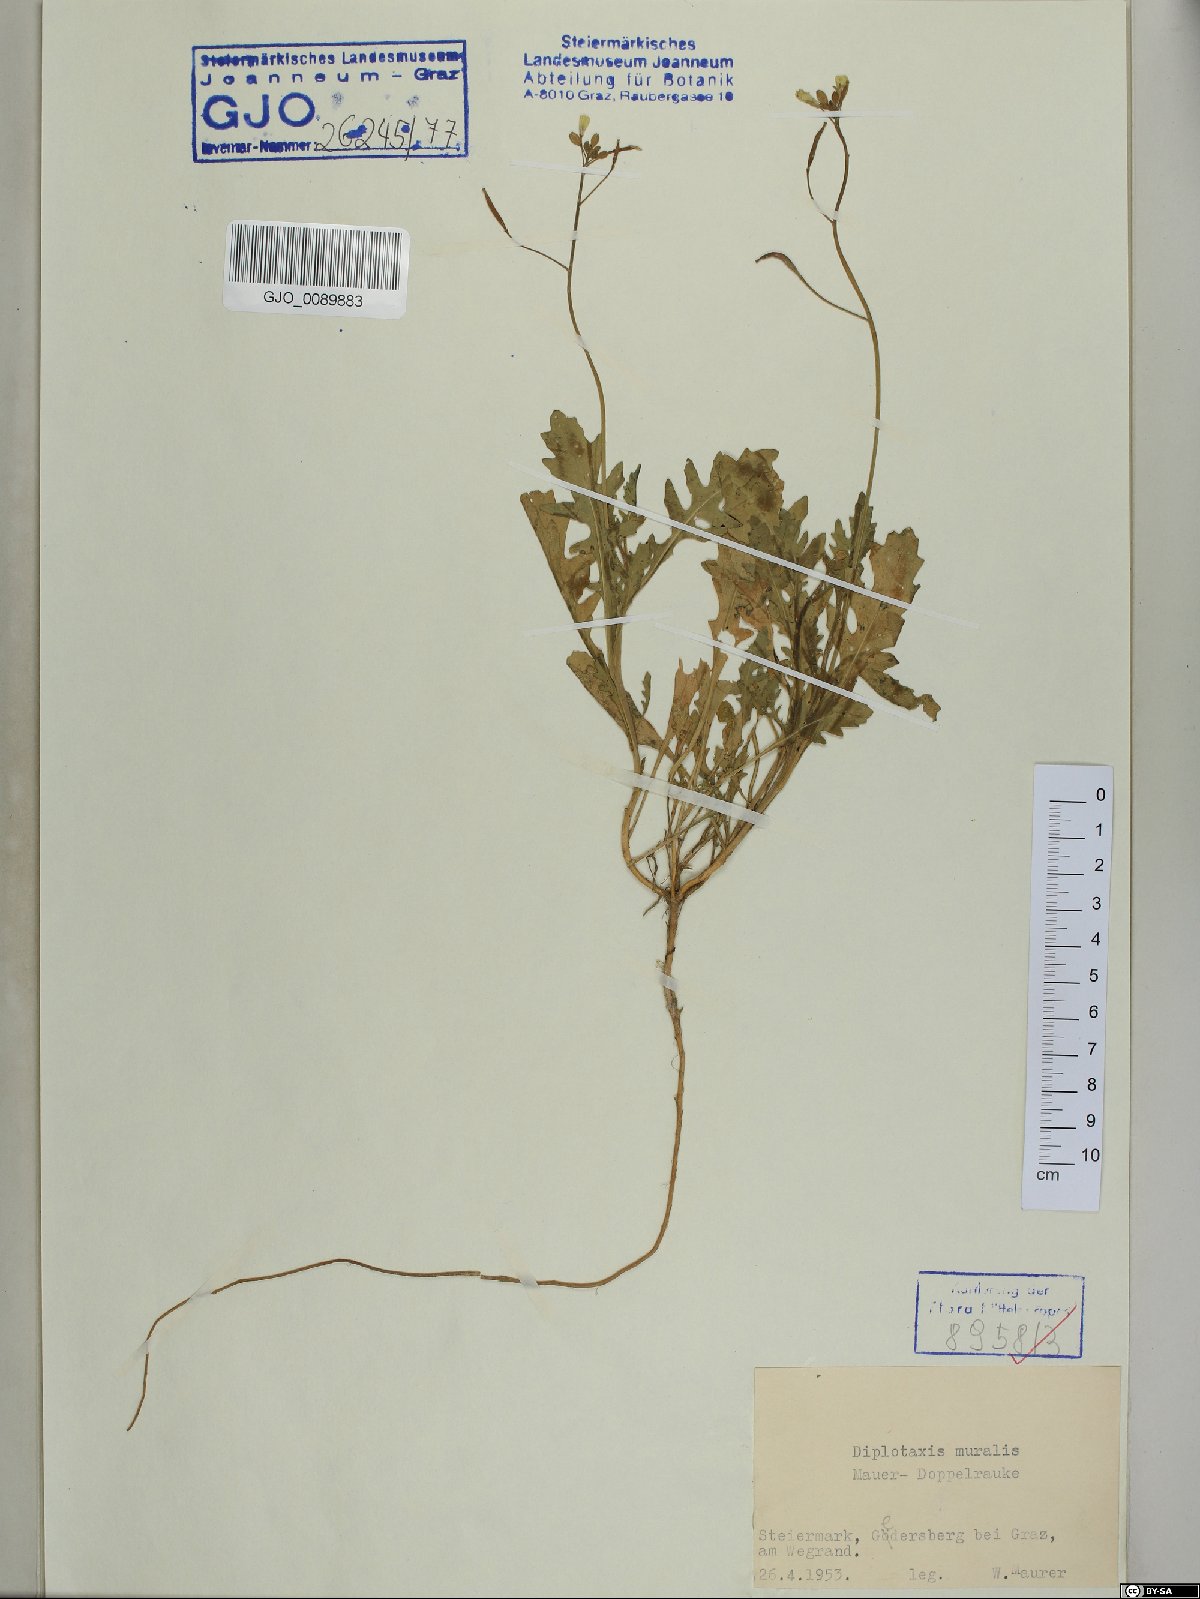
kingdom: Plantae
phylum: Tracheophyta
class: Magnoliopsida
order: Brassicales
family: Brassicaceae
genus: Diplotaxis
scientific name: Diplotaxis muralis
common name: Annual wall-rocket
